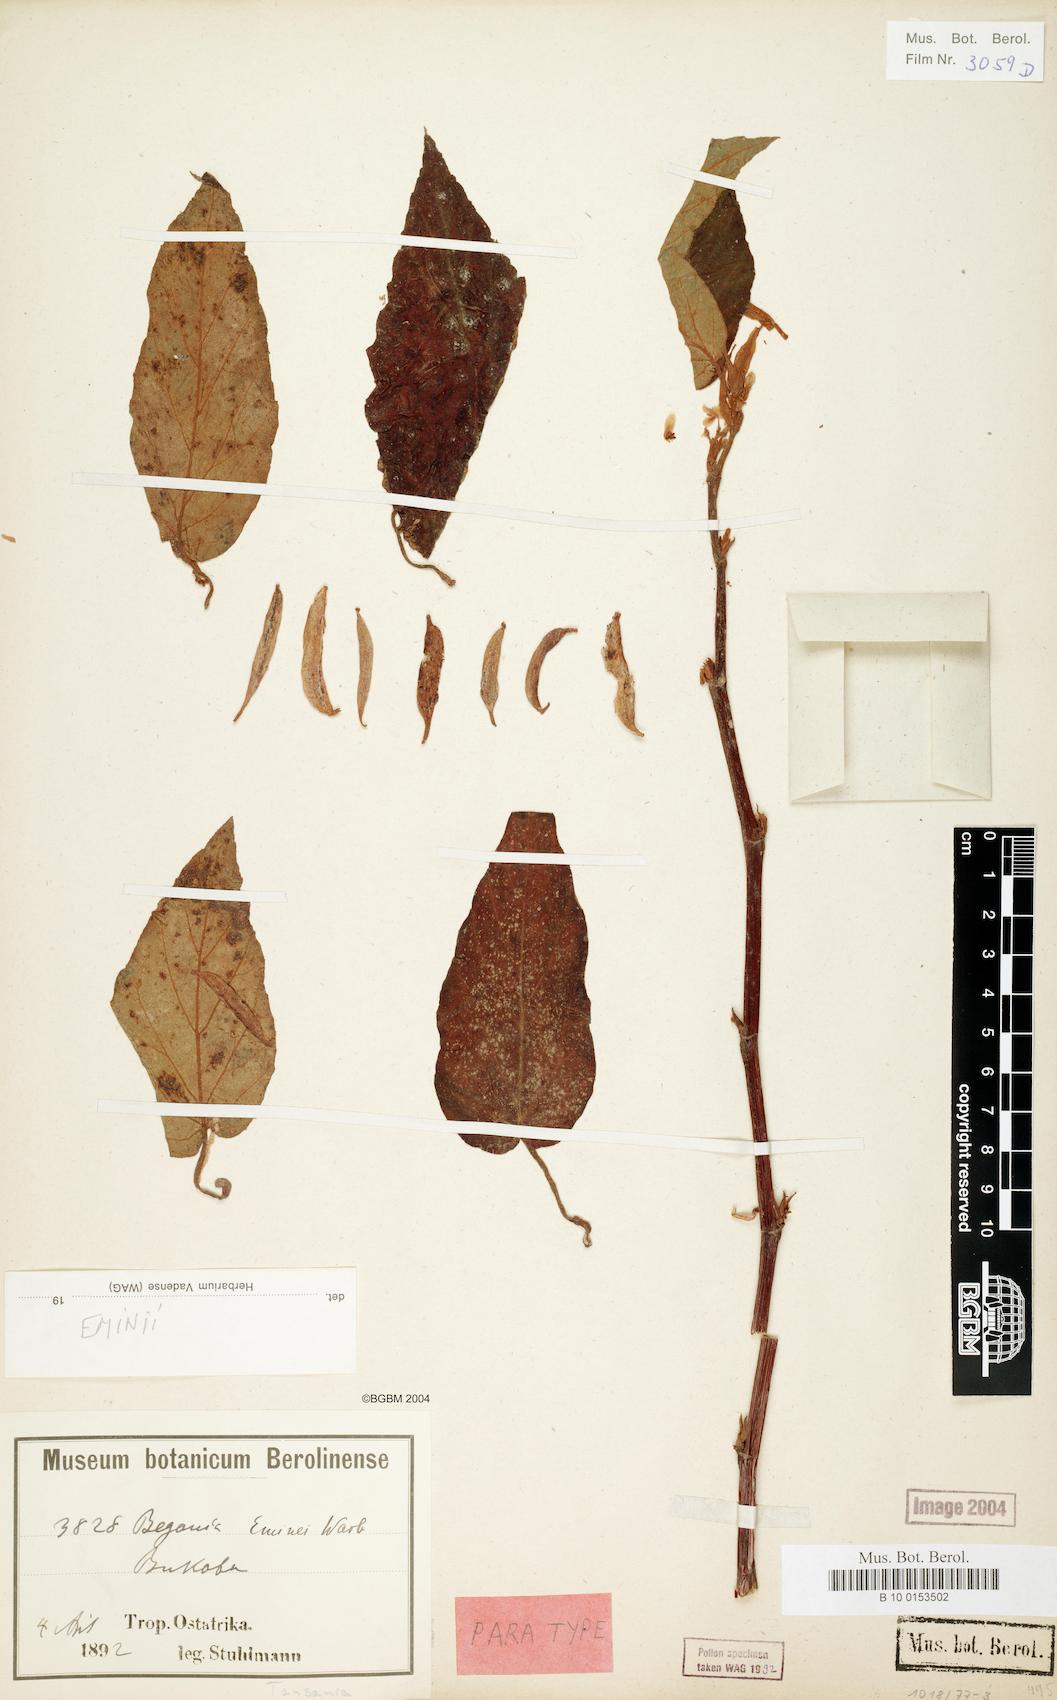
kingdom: Plantae
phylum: Tracheophyta
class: Magnoliopsida
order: Cucurbitales
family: Begoniaceae
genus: Begonia
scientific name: Begonia eminii
